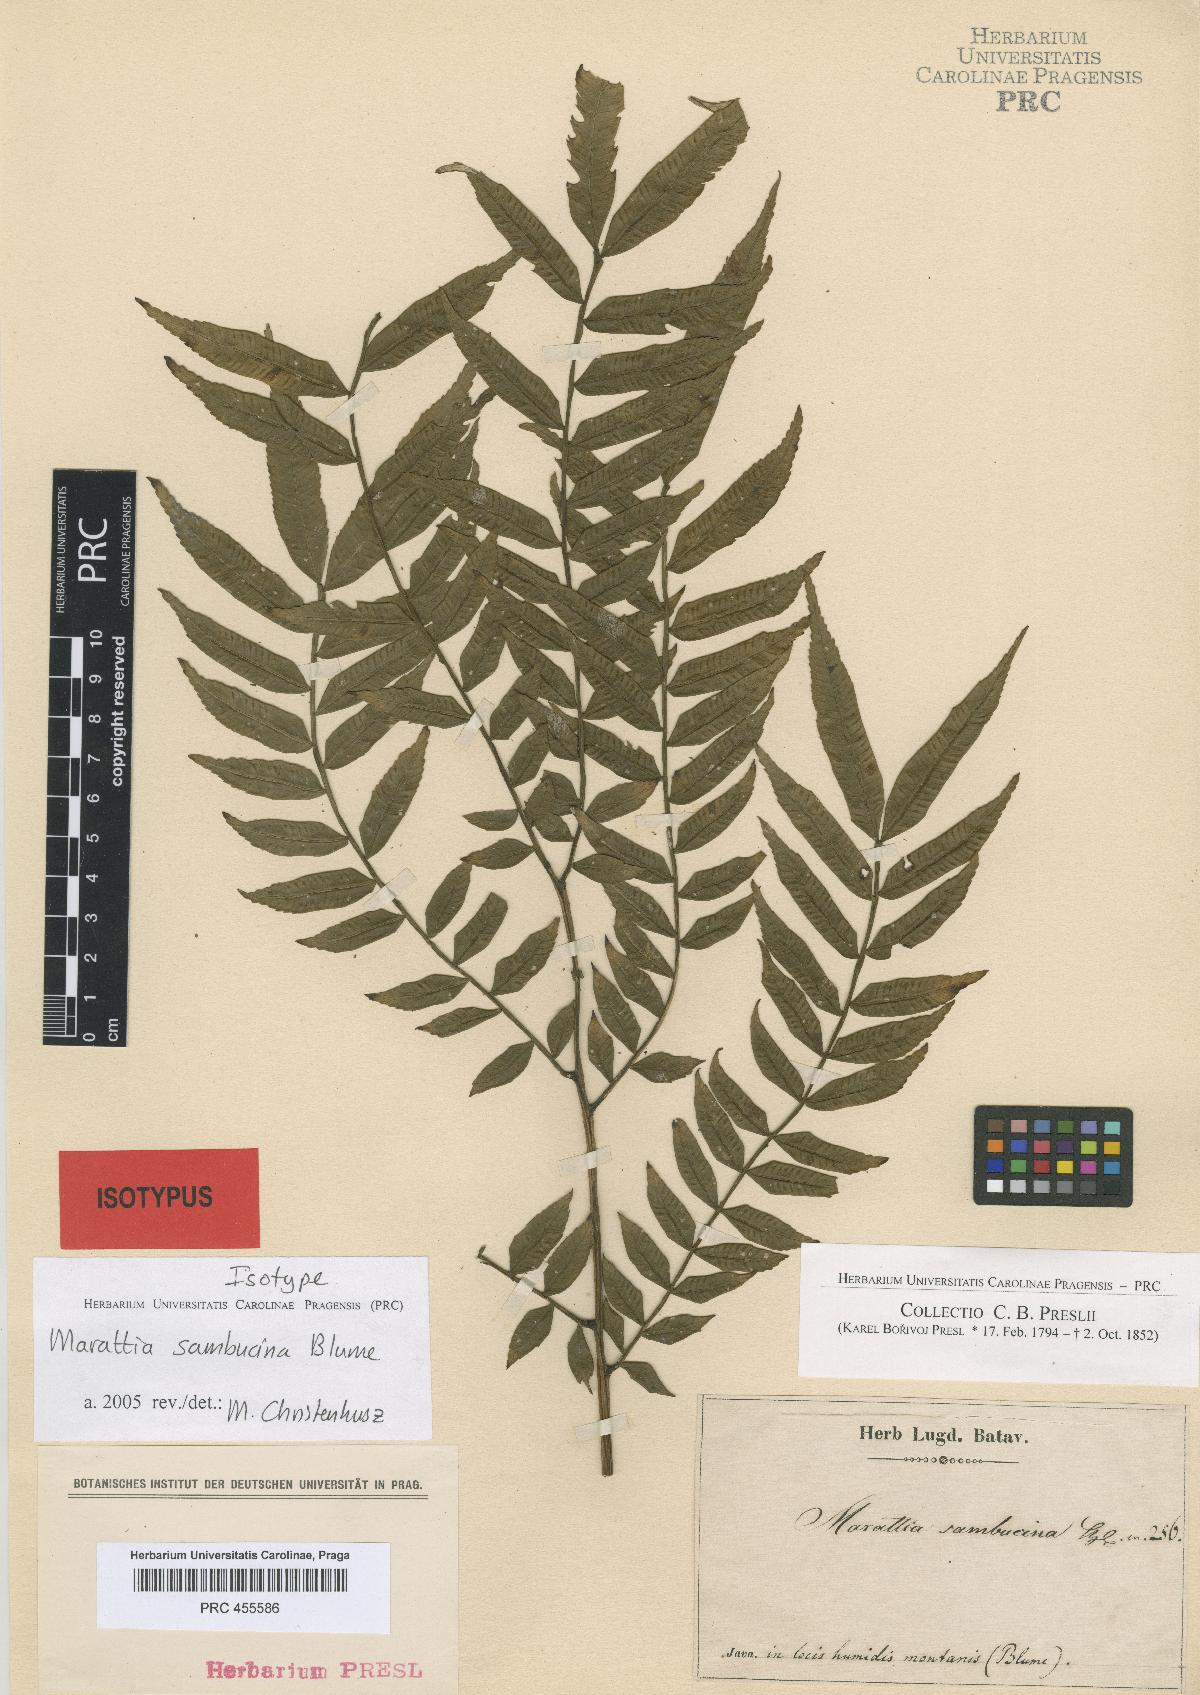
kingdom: Plantae
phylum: Tracheophyta
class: Polypodiopsida
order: Marattiales
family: Marattiaceae
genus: Ptisana
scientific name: Ptisana sambucina
